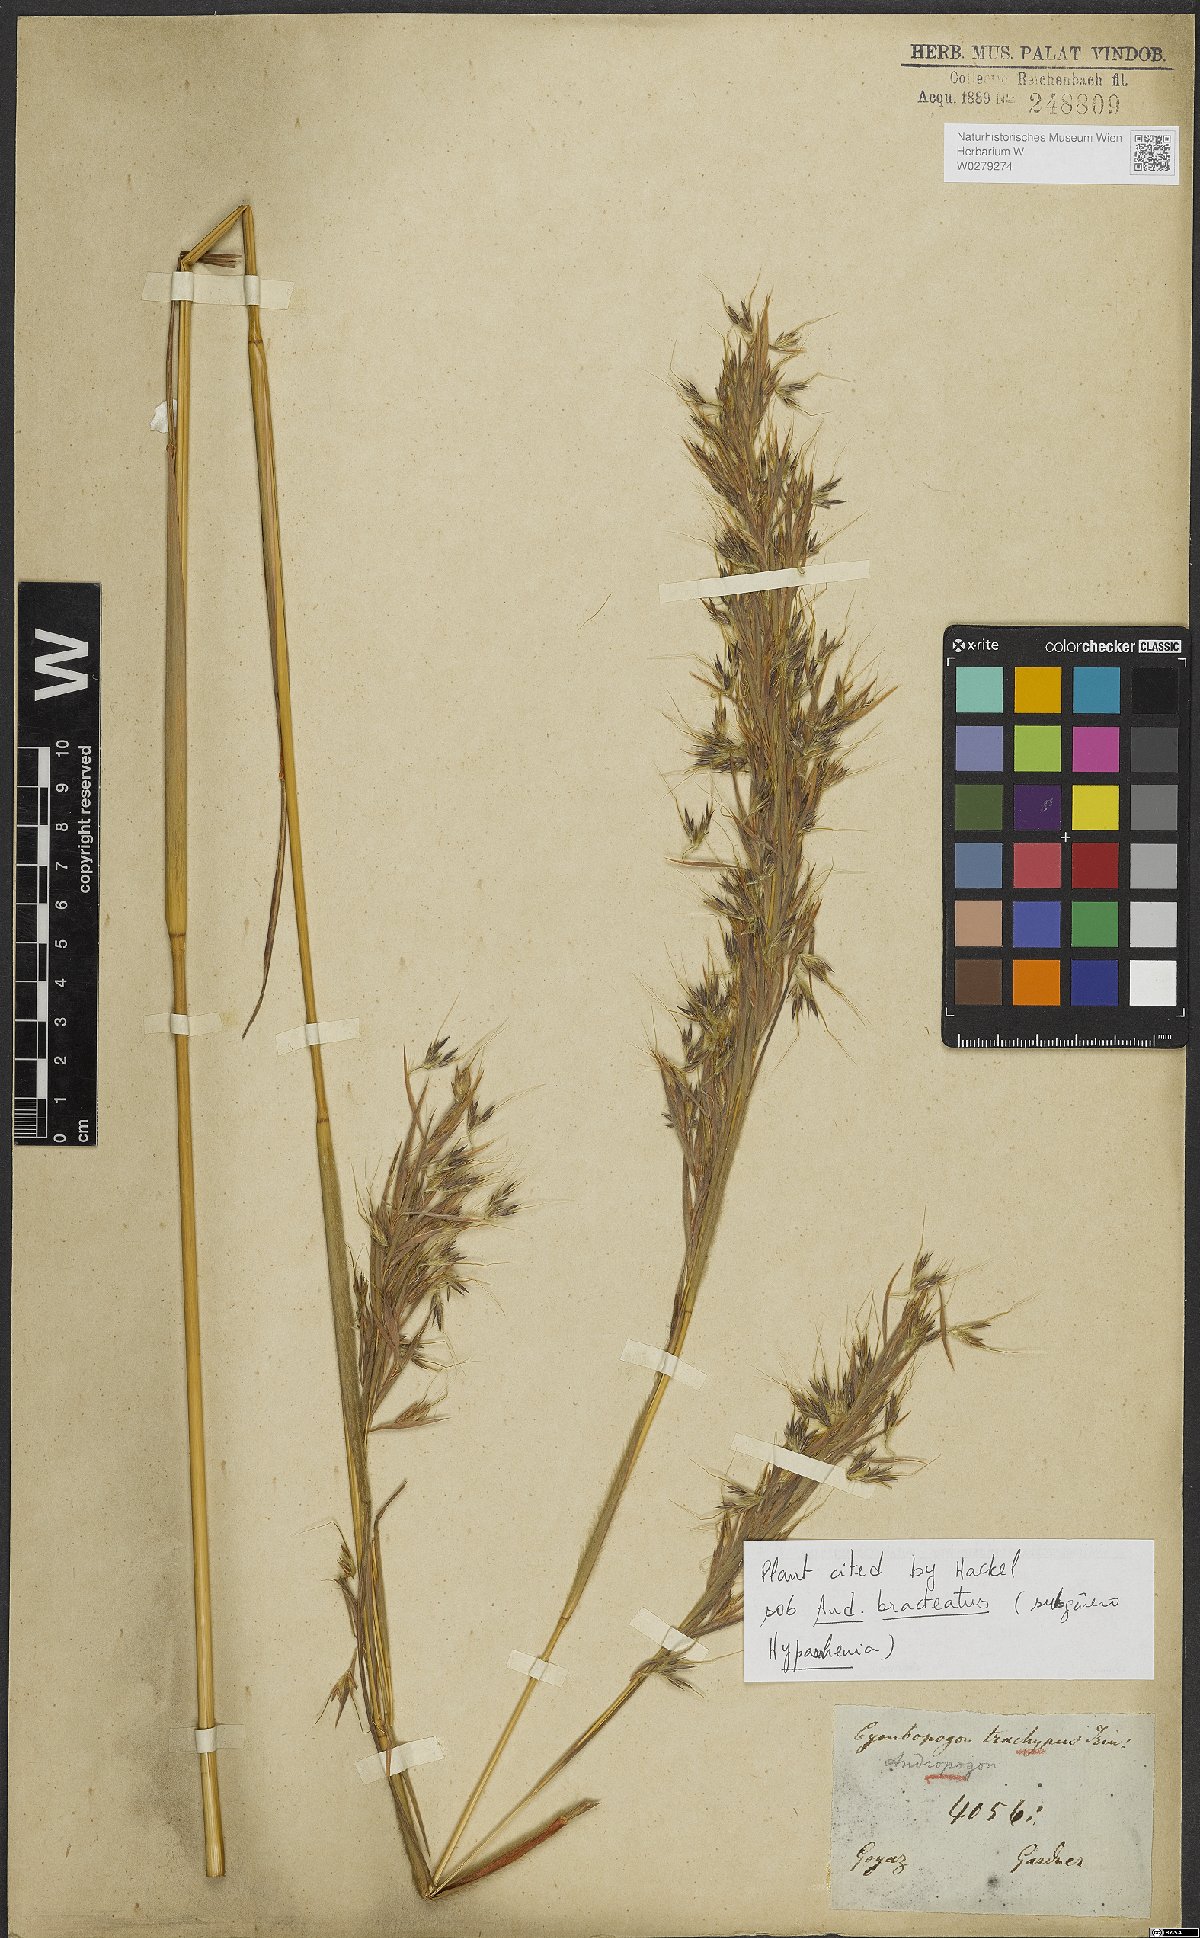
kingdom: Plantae
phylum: Tracheophyta
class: Liliopsida
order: Poales
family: Poaceae
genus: Hyparrhenia
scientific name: Hyparrhenia bracteata
